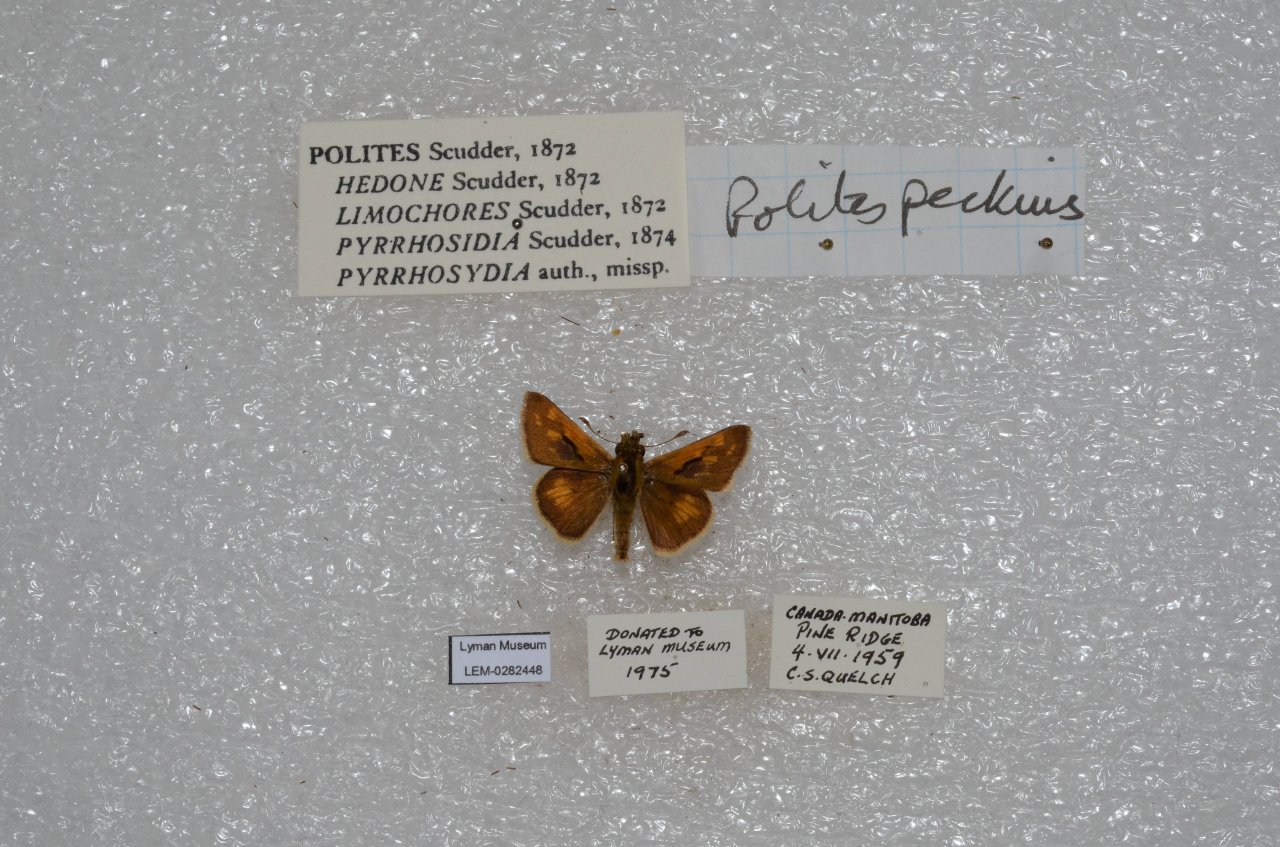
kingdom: Animalia
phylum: Arthropoda
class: Insecta
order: Lepidoptera
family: Hesperiidae
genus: Polites
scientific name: Polites coras
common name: Peck's Skipper
